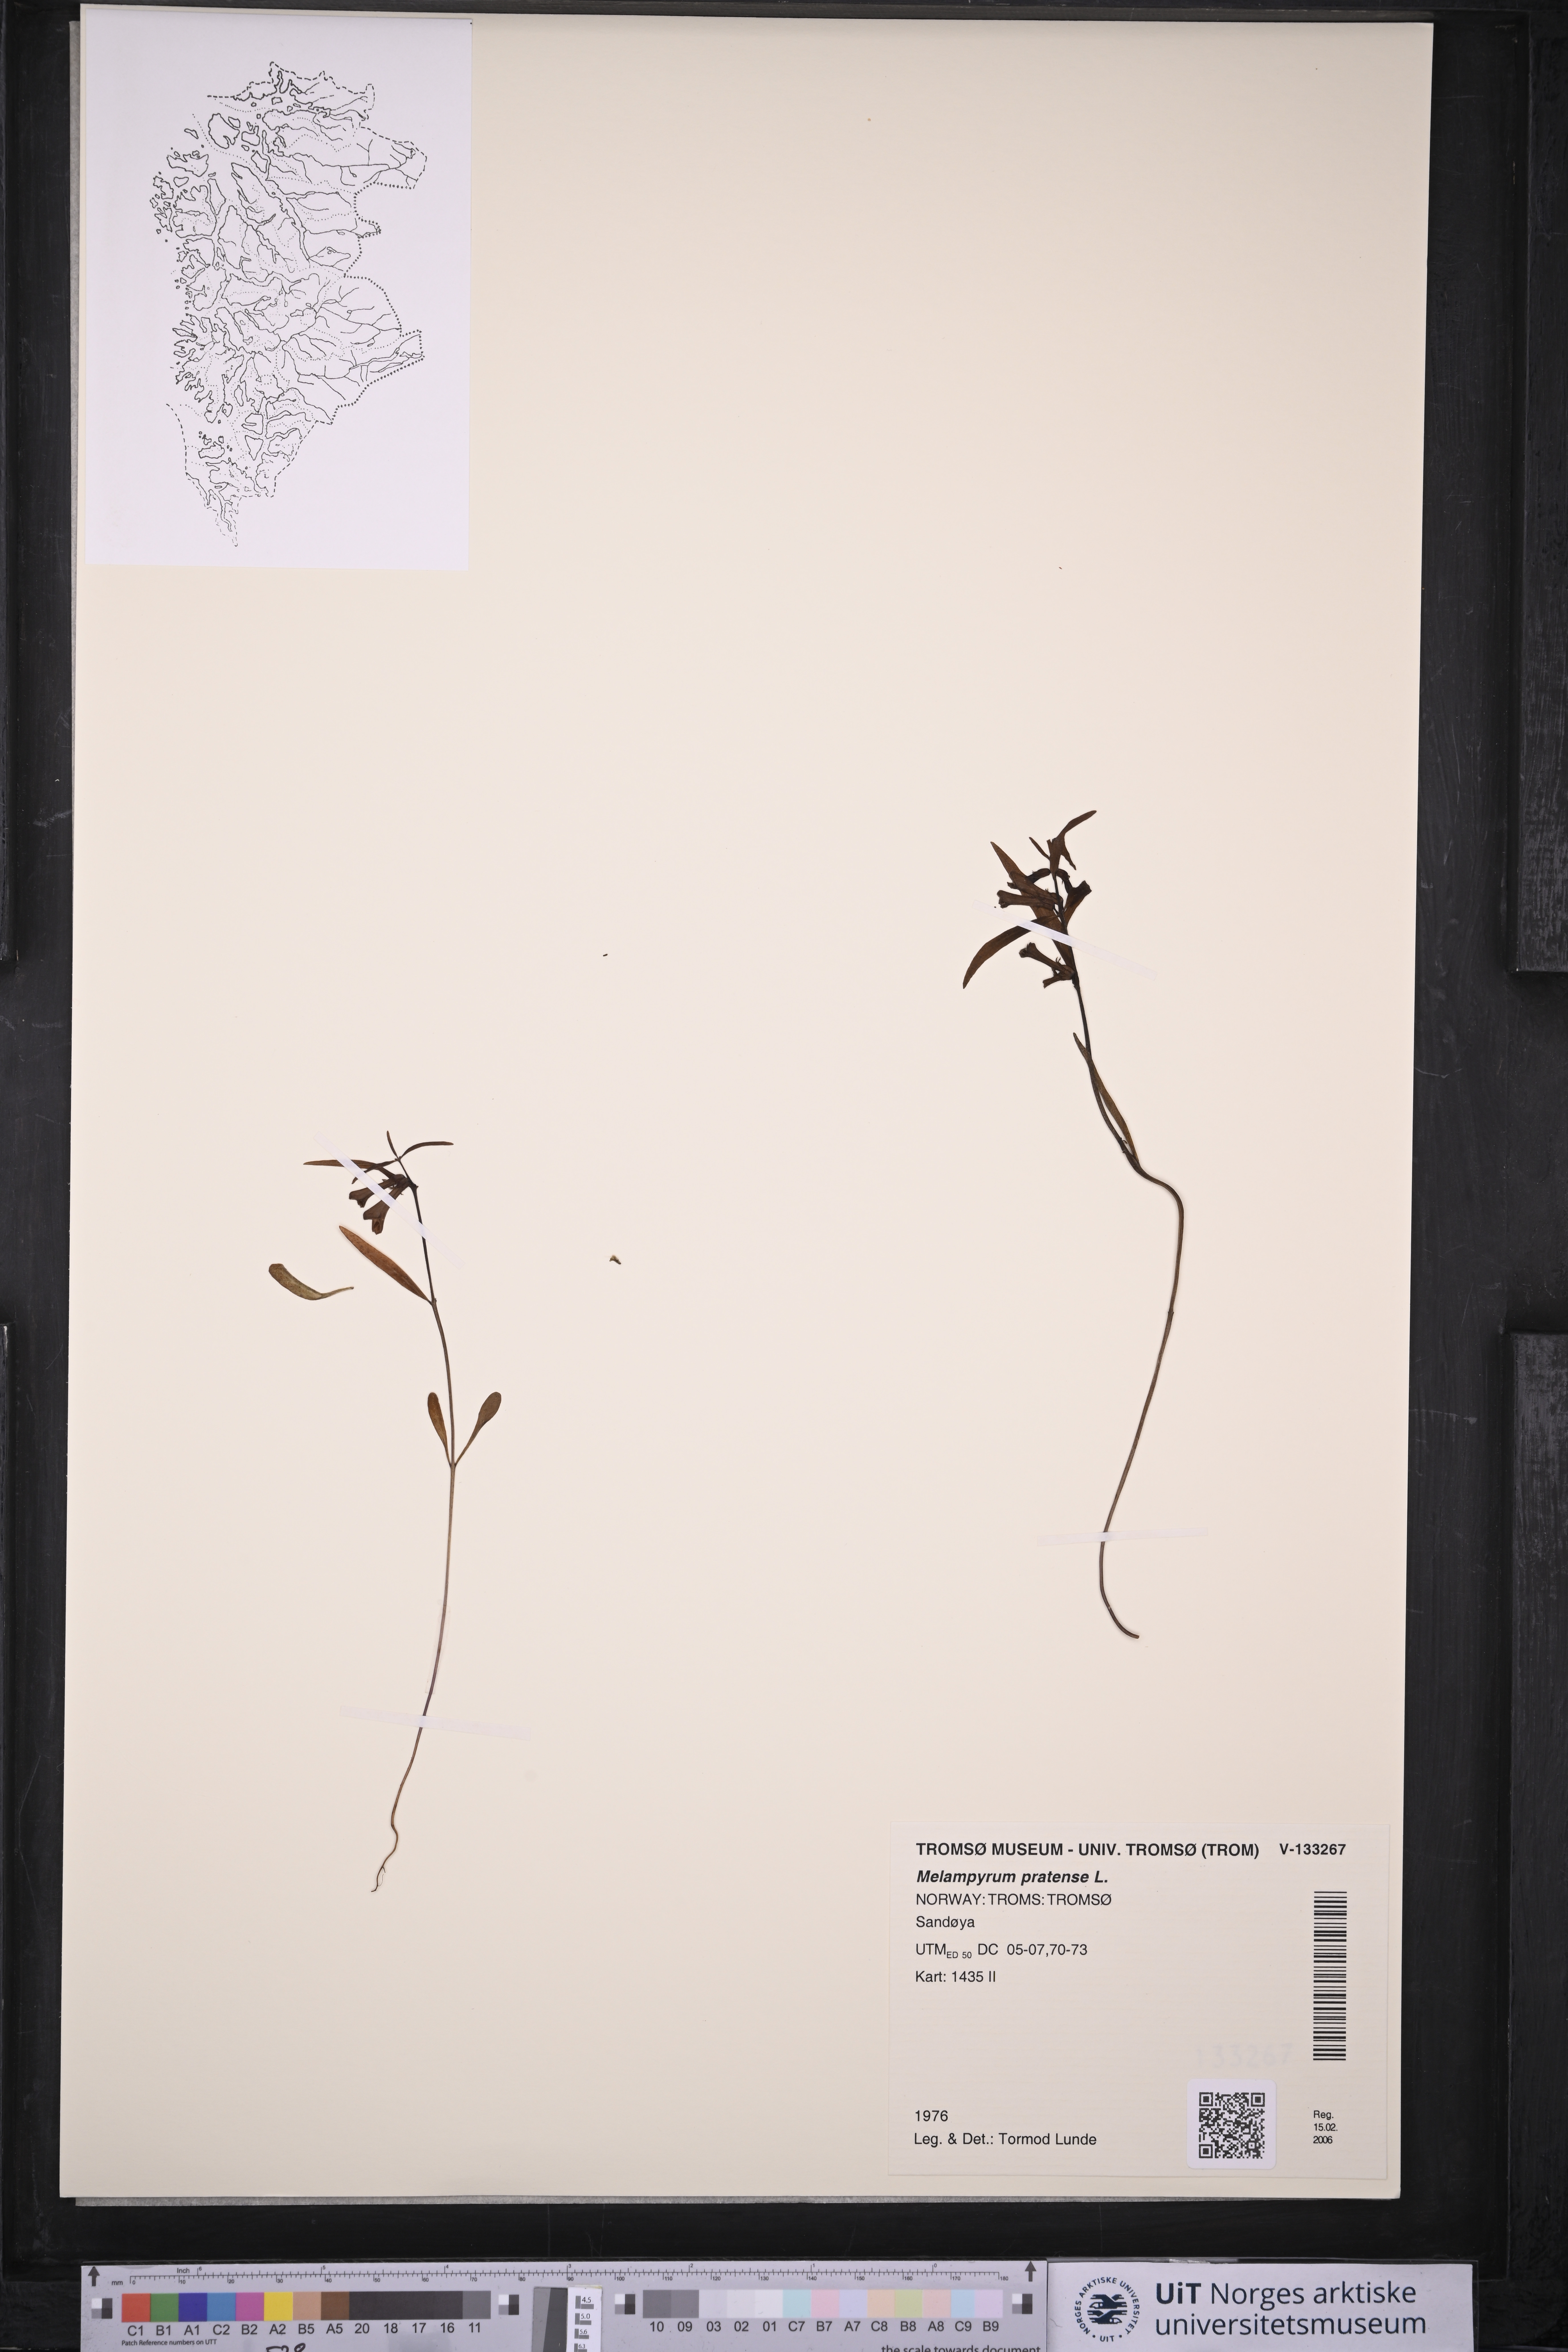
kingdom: Plantae
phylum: Tracheophyta
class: Magnoliopsida
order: Lamiales
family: Orobanchaceae
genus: Melampyrum
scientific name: Melampyrum pratense
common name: Common cow-wheat
